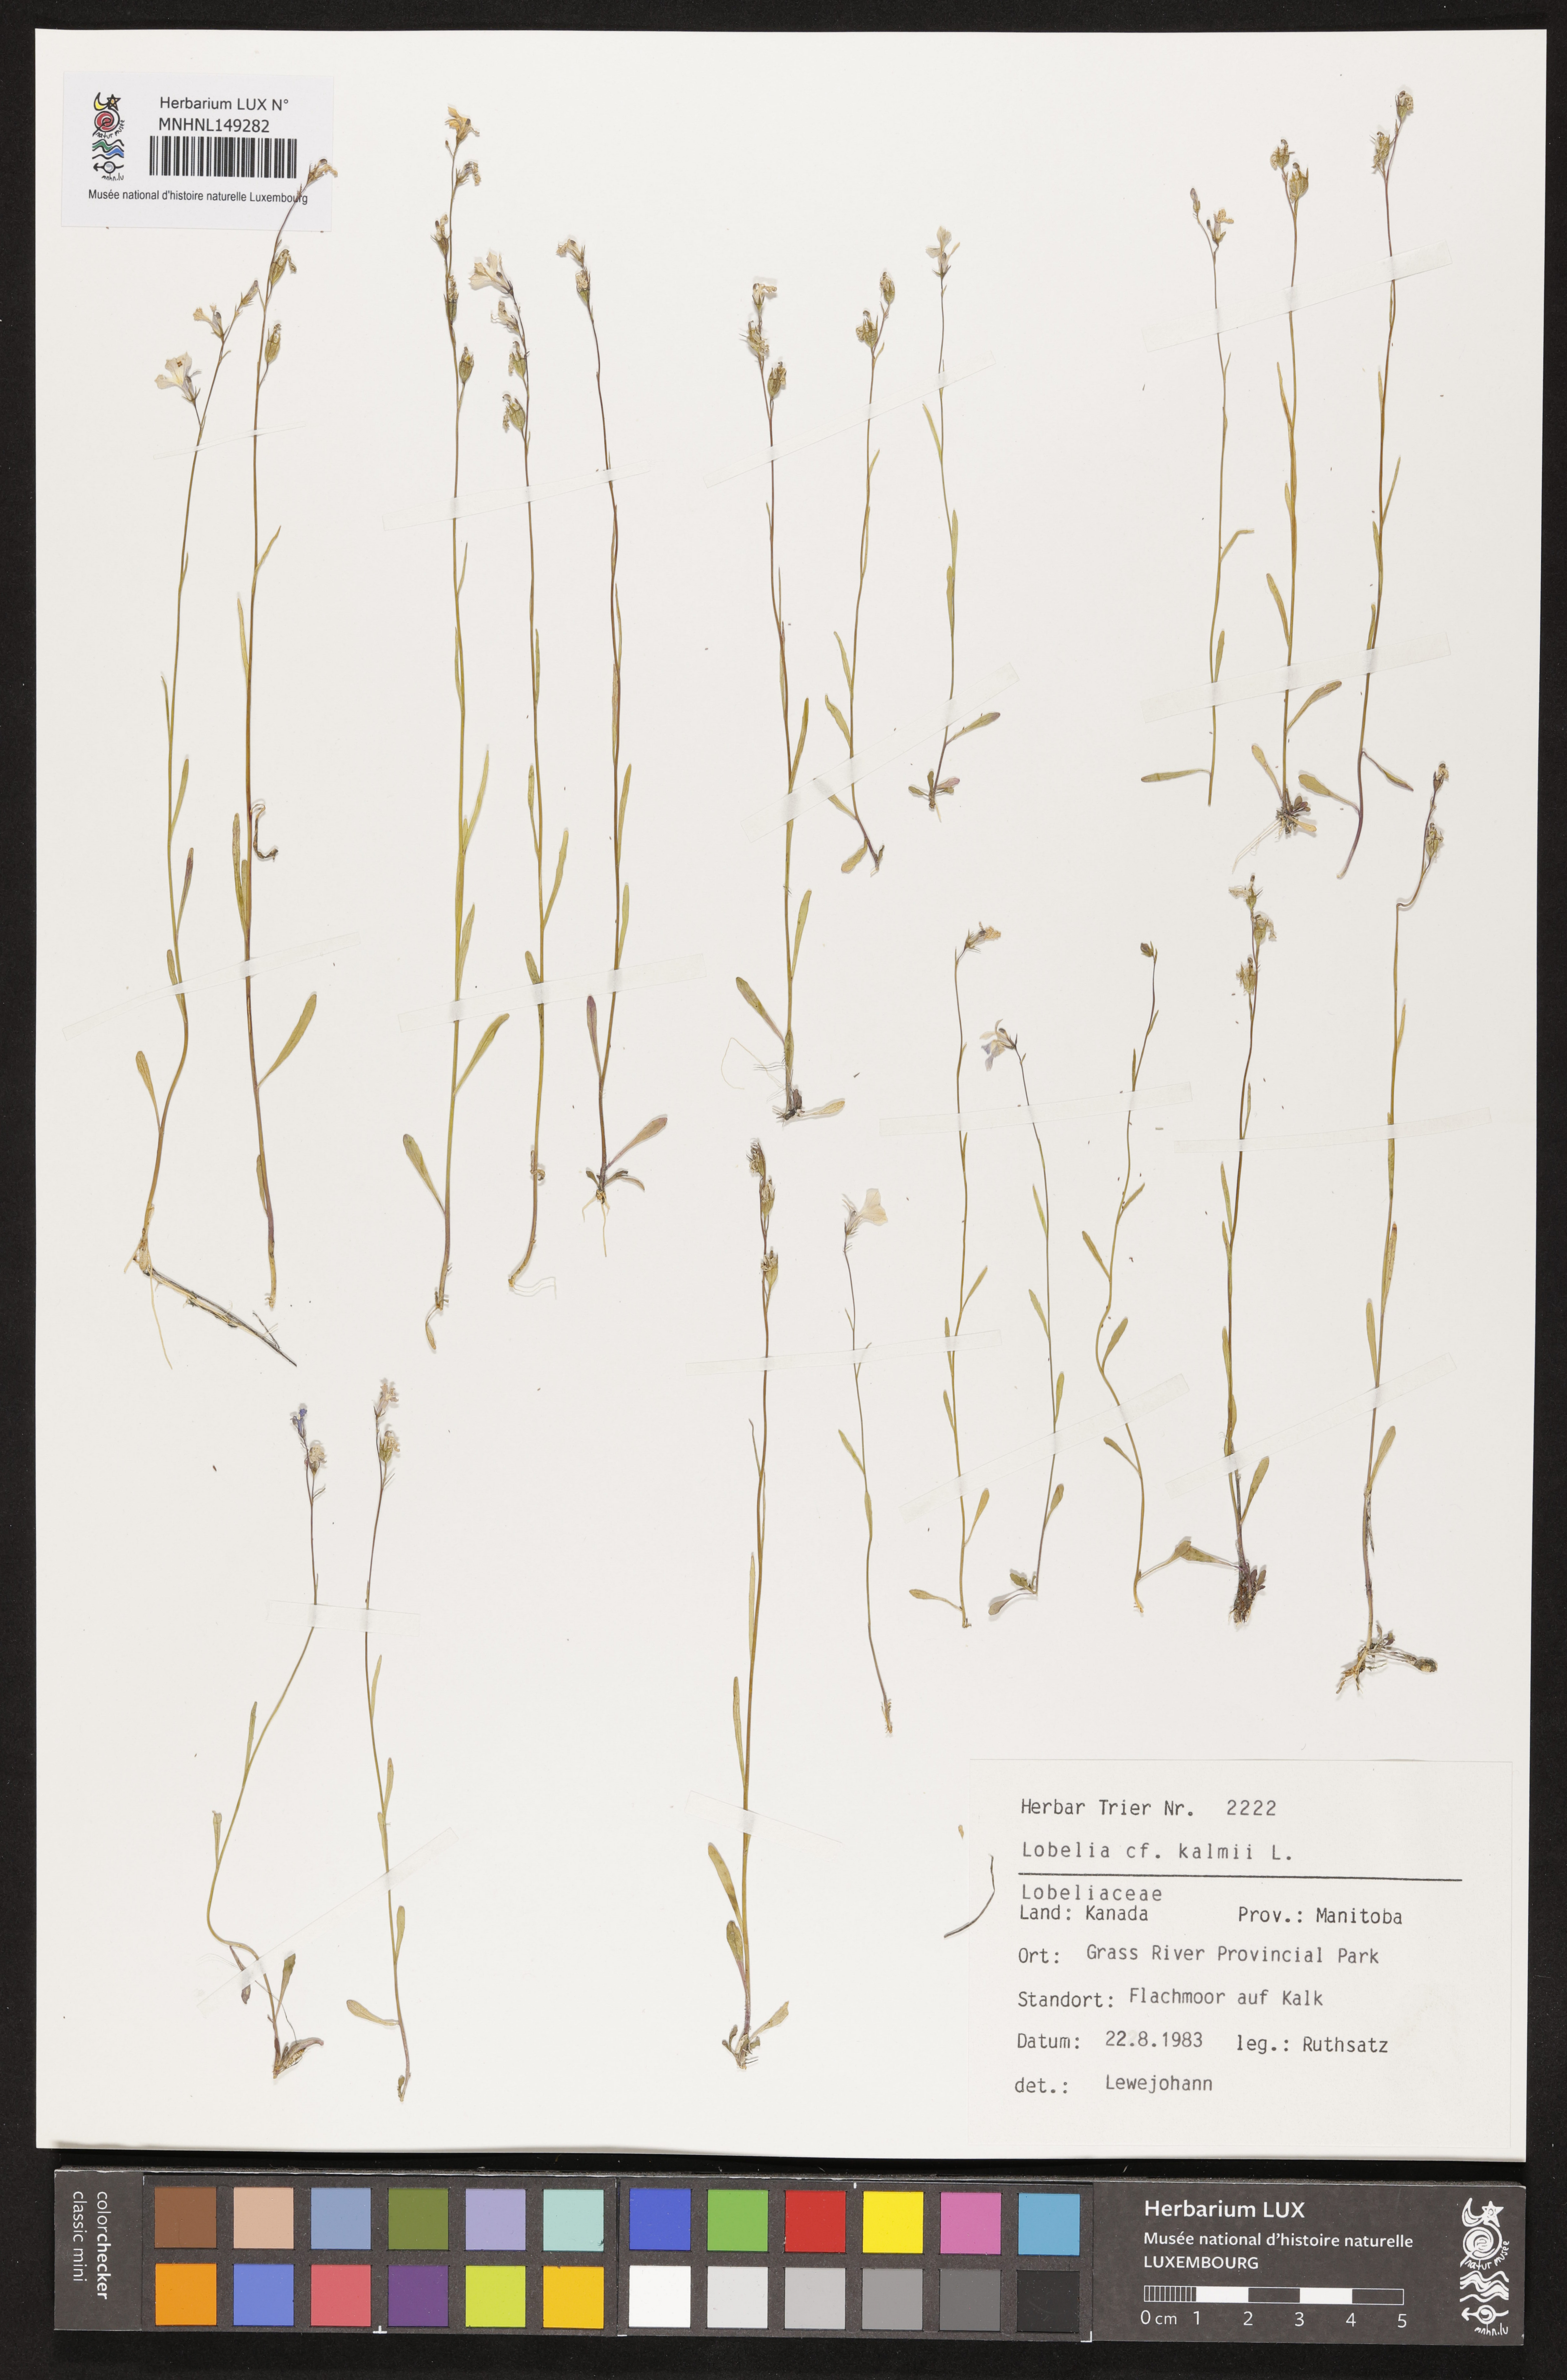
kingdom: Plantae
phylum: Tracheophyta
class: Magnoliopsida
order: Asterales
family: Campanulaceae
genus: Lobelia
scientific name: Lobelia kalmii
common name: Kalm's lobelia
